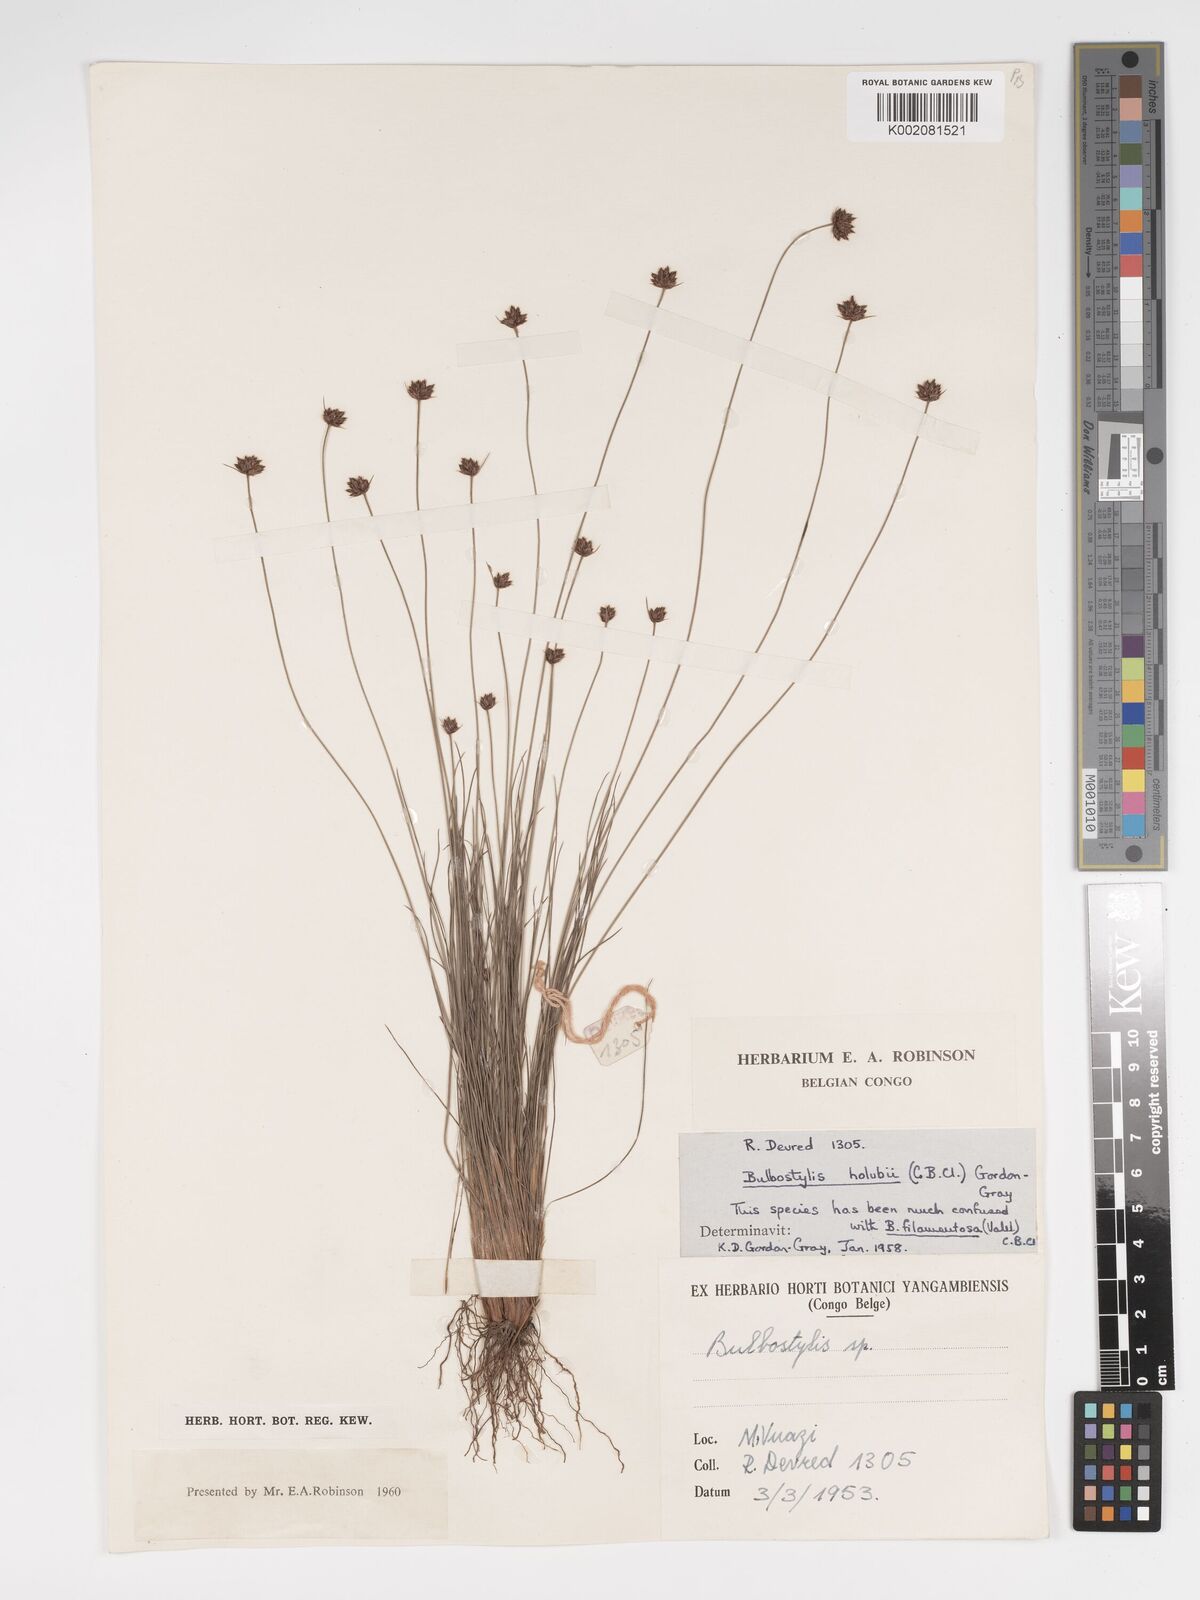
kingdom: Plantae
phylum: Tracheophyta
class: Liliopsida
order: Poales
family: Cyperaceae
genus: Bulbostylis
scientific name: Bulbostylis scabricaulis
